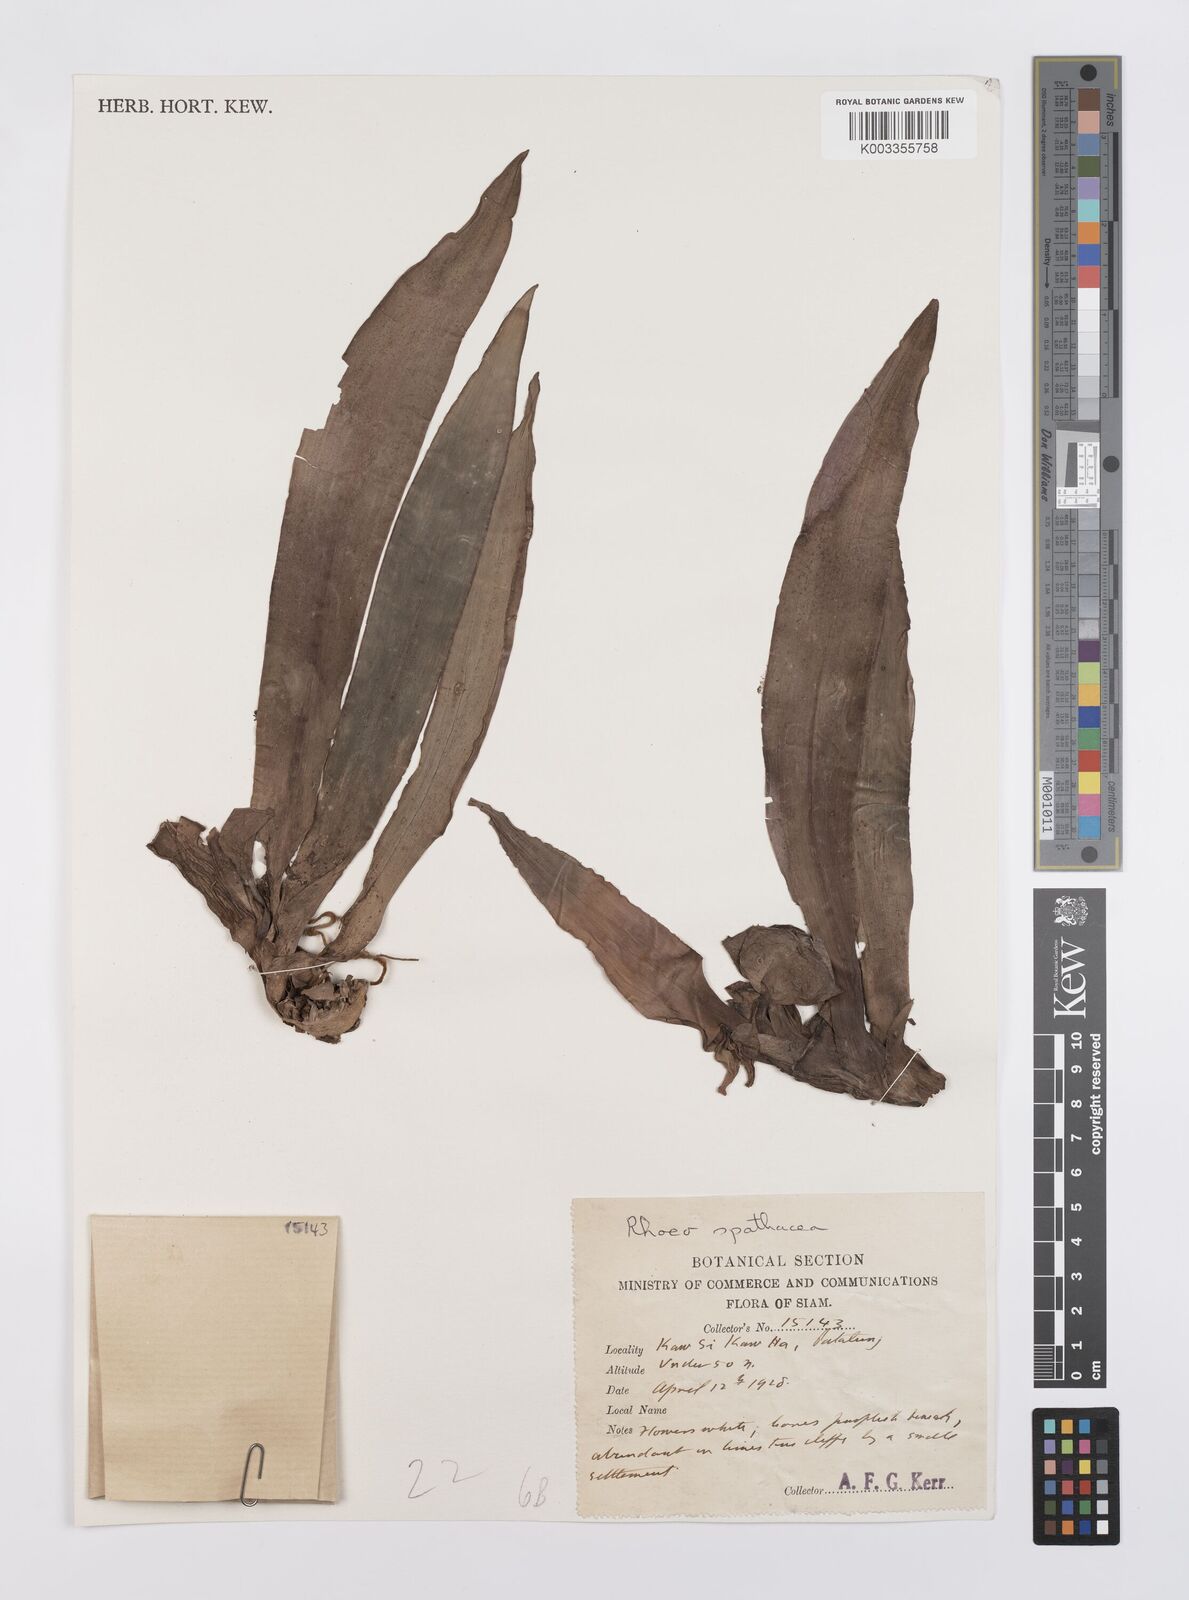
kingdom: Plantae
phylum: Tracheophyta
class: Liliopsida
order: Commelinales
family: Commelinaceae
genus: Tradescantia
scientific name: Tradescantia spathacea
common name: Boatlily
